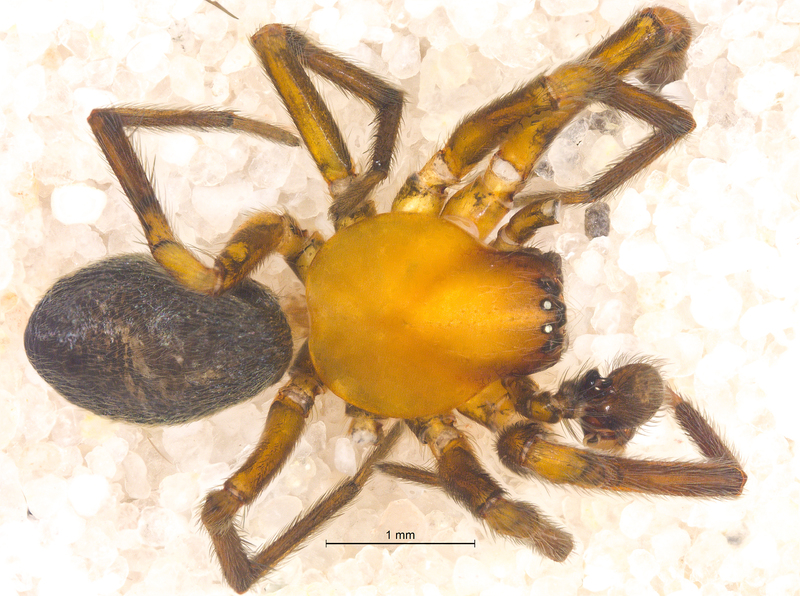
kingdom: Animalia
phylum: Arthropoda
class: Arachnida
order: Araneae
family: Titanoecidae
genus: Titanoeca
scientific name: Titanoeca spominima
